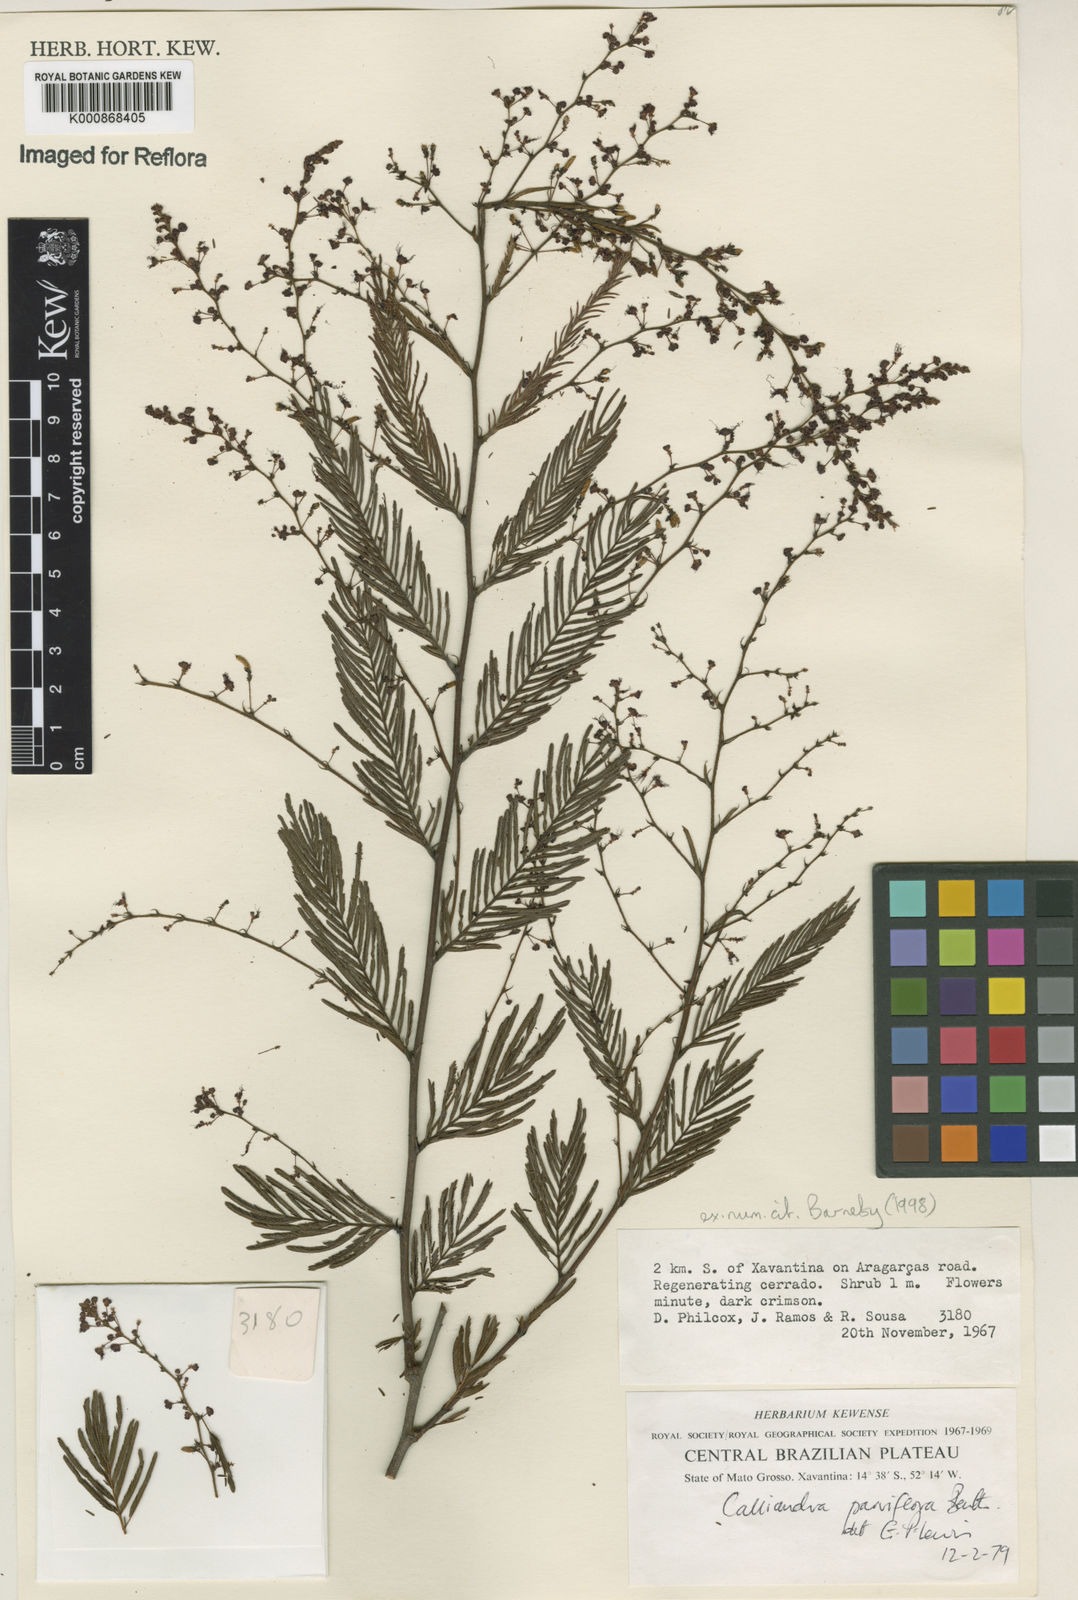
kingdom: Plantae
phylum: Tracheophyta
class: Magnoliopsida
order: Fabales
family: Fabaceae
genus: Calliandra
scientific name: Calliandra parviflora
